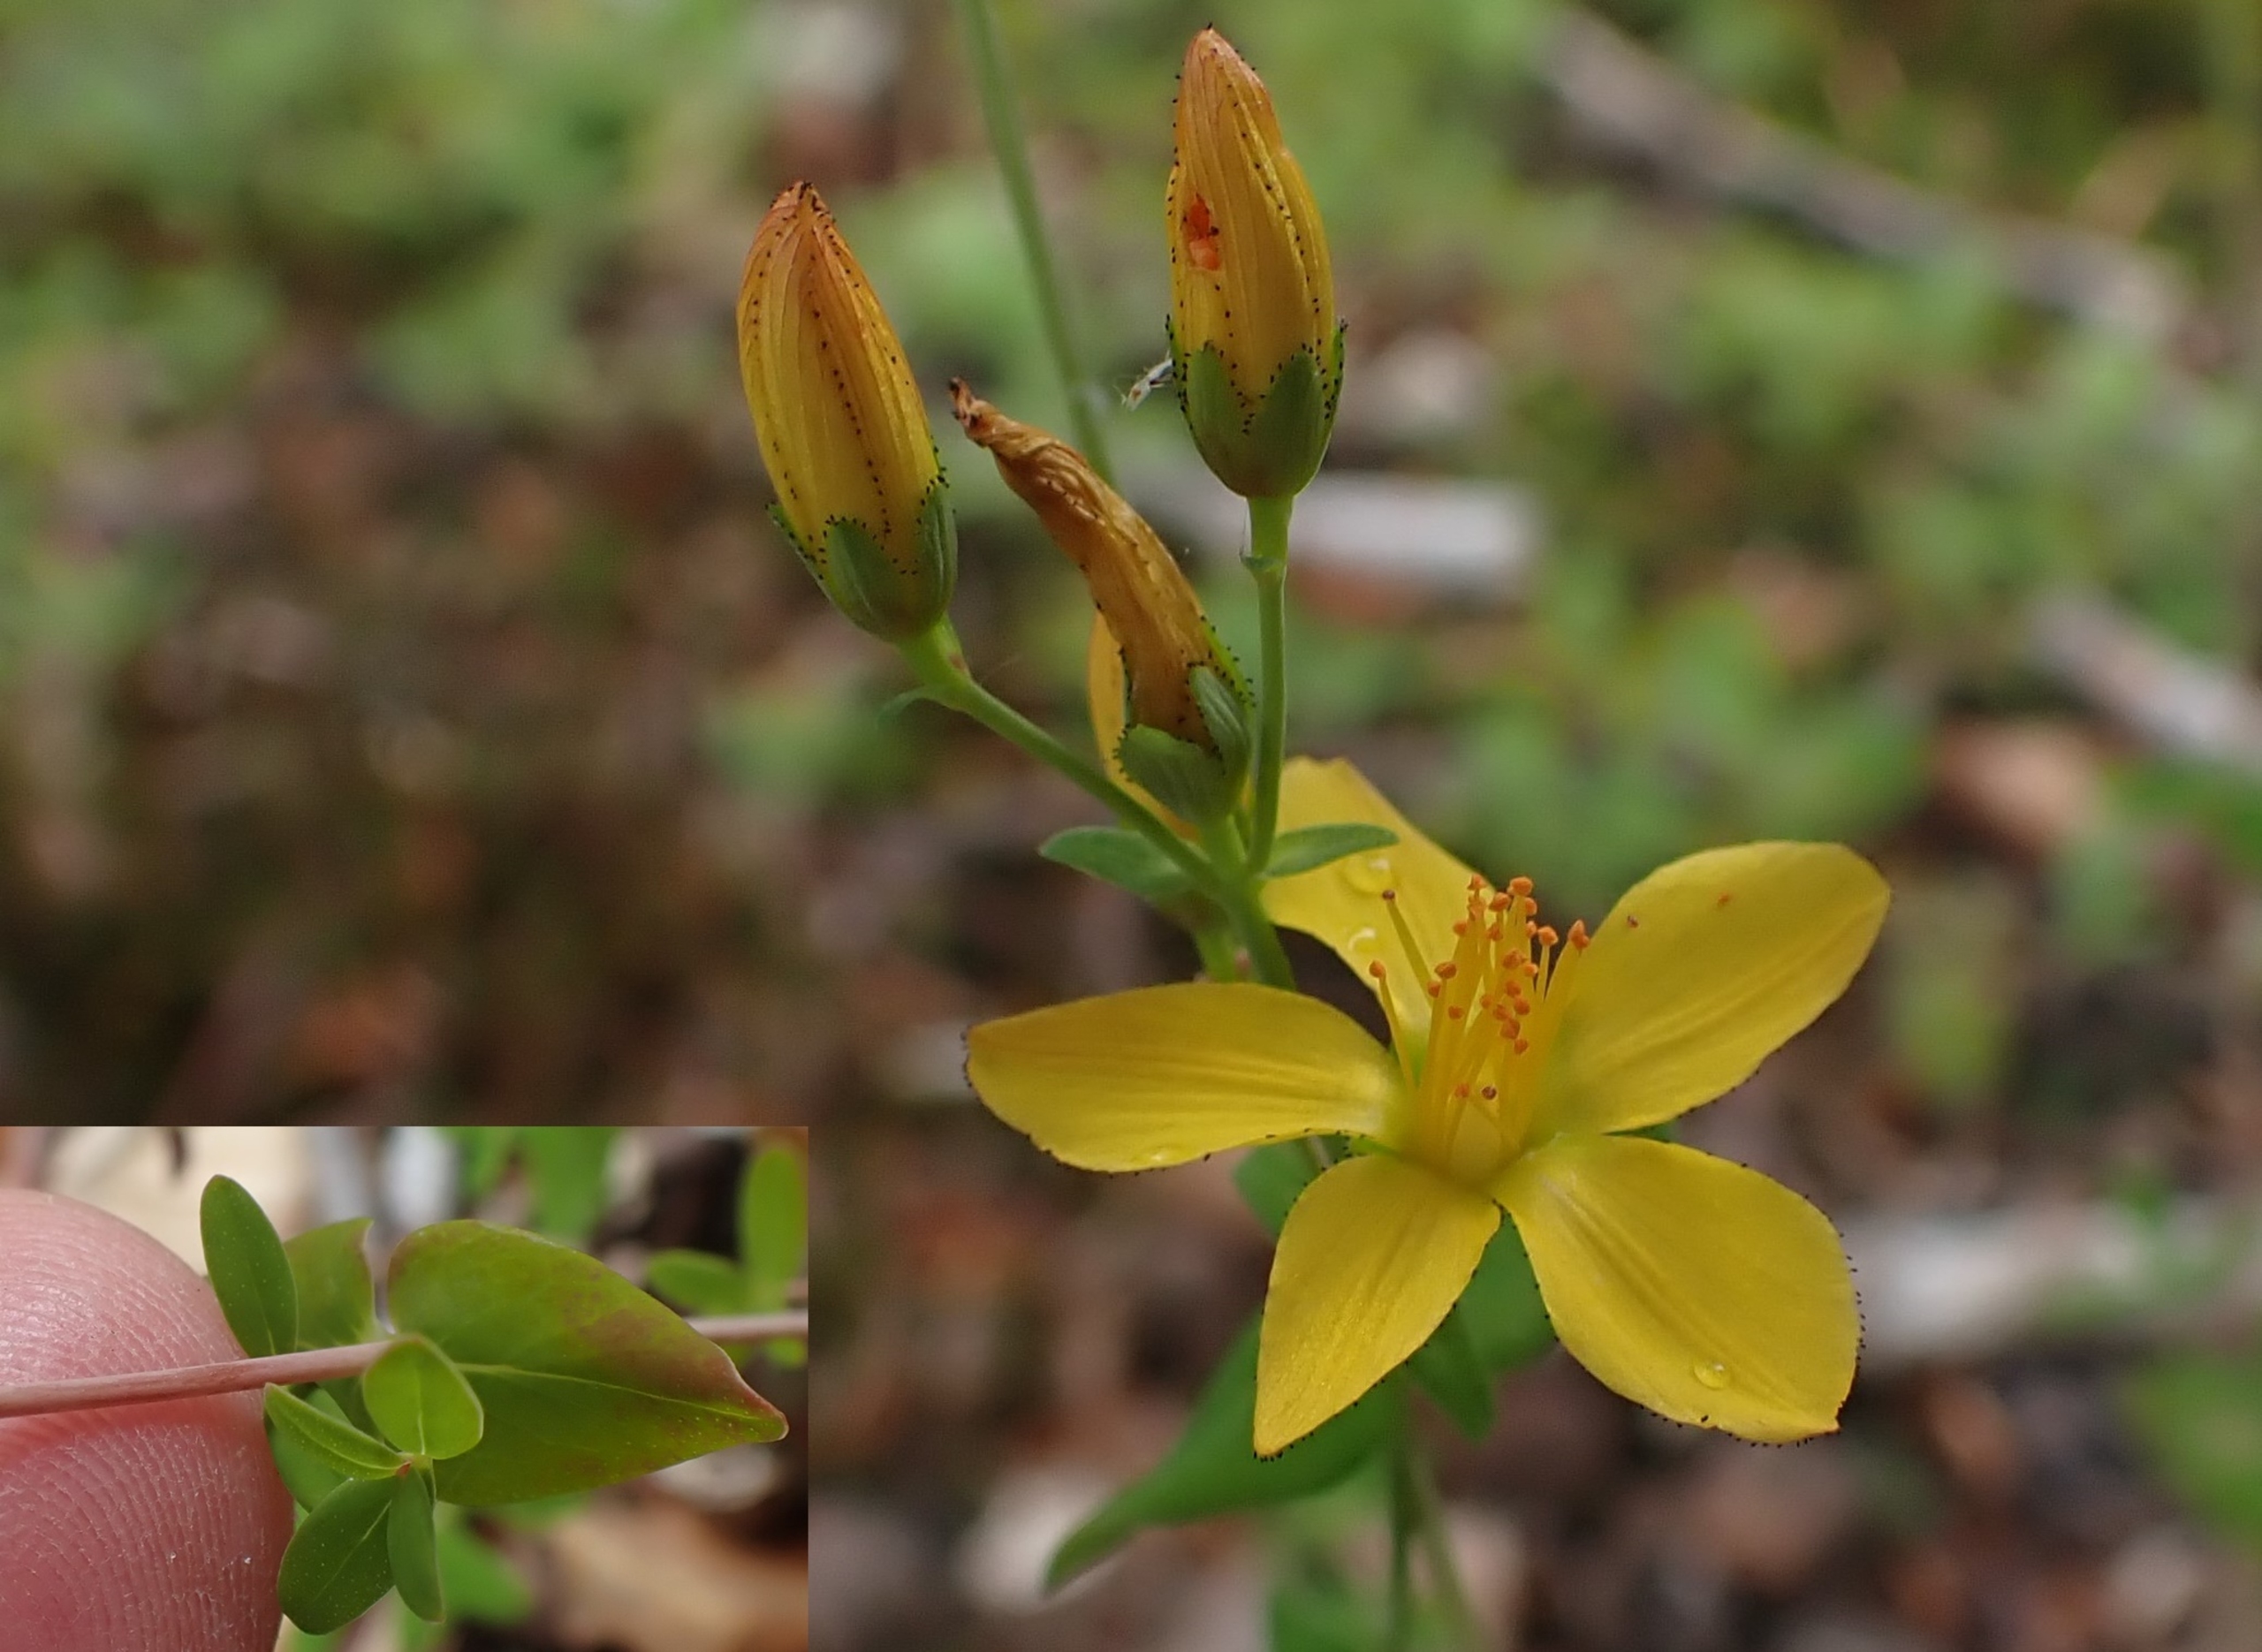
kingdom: Plantae
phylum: Tracheophyta
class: Magnoliopsida
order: Malpighiales
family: Hypericaceae
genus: Hypericum
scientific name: Hypericum pulchrum
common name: Smuk perikon
